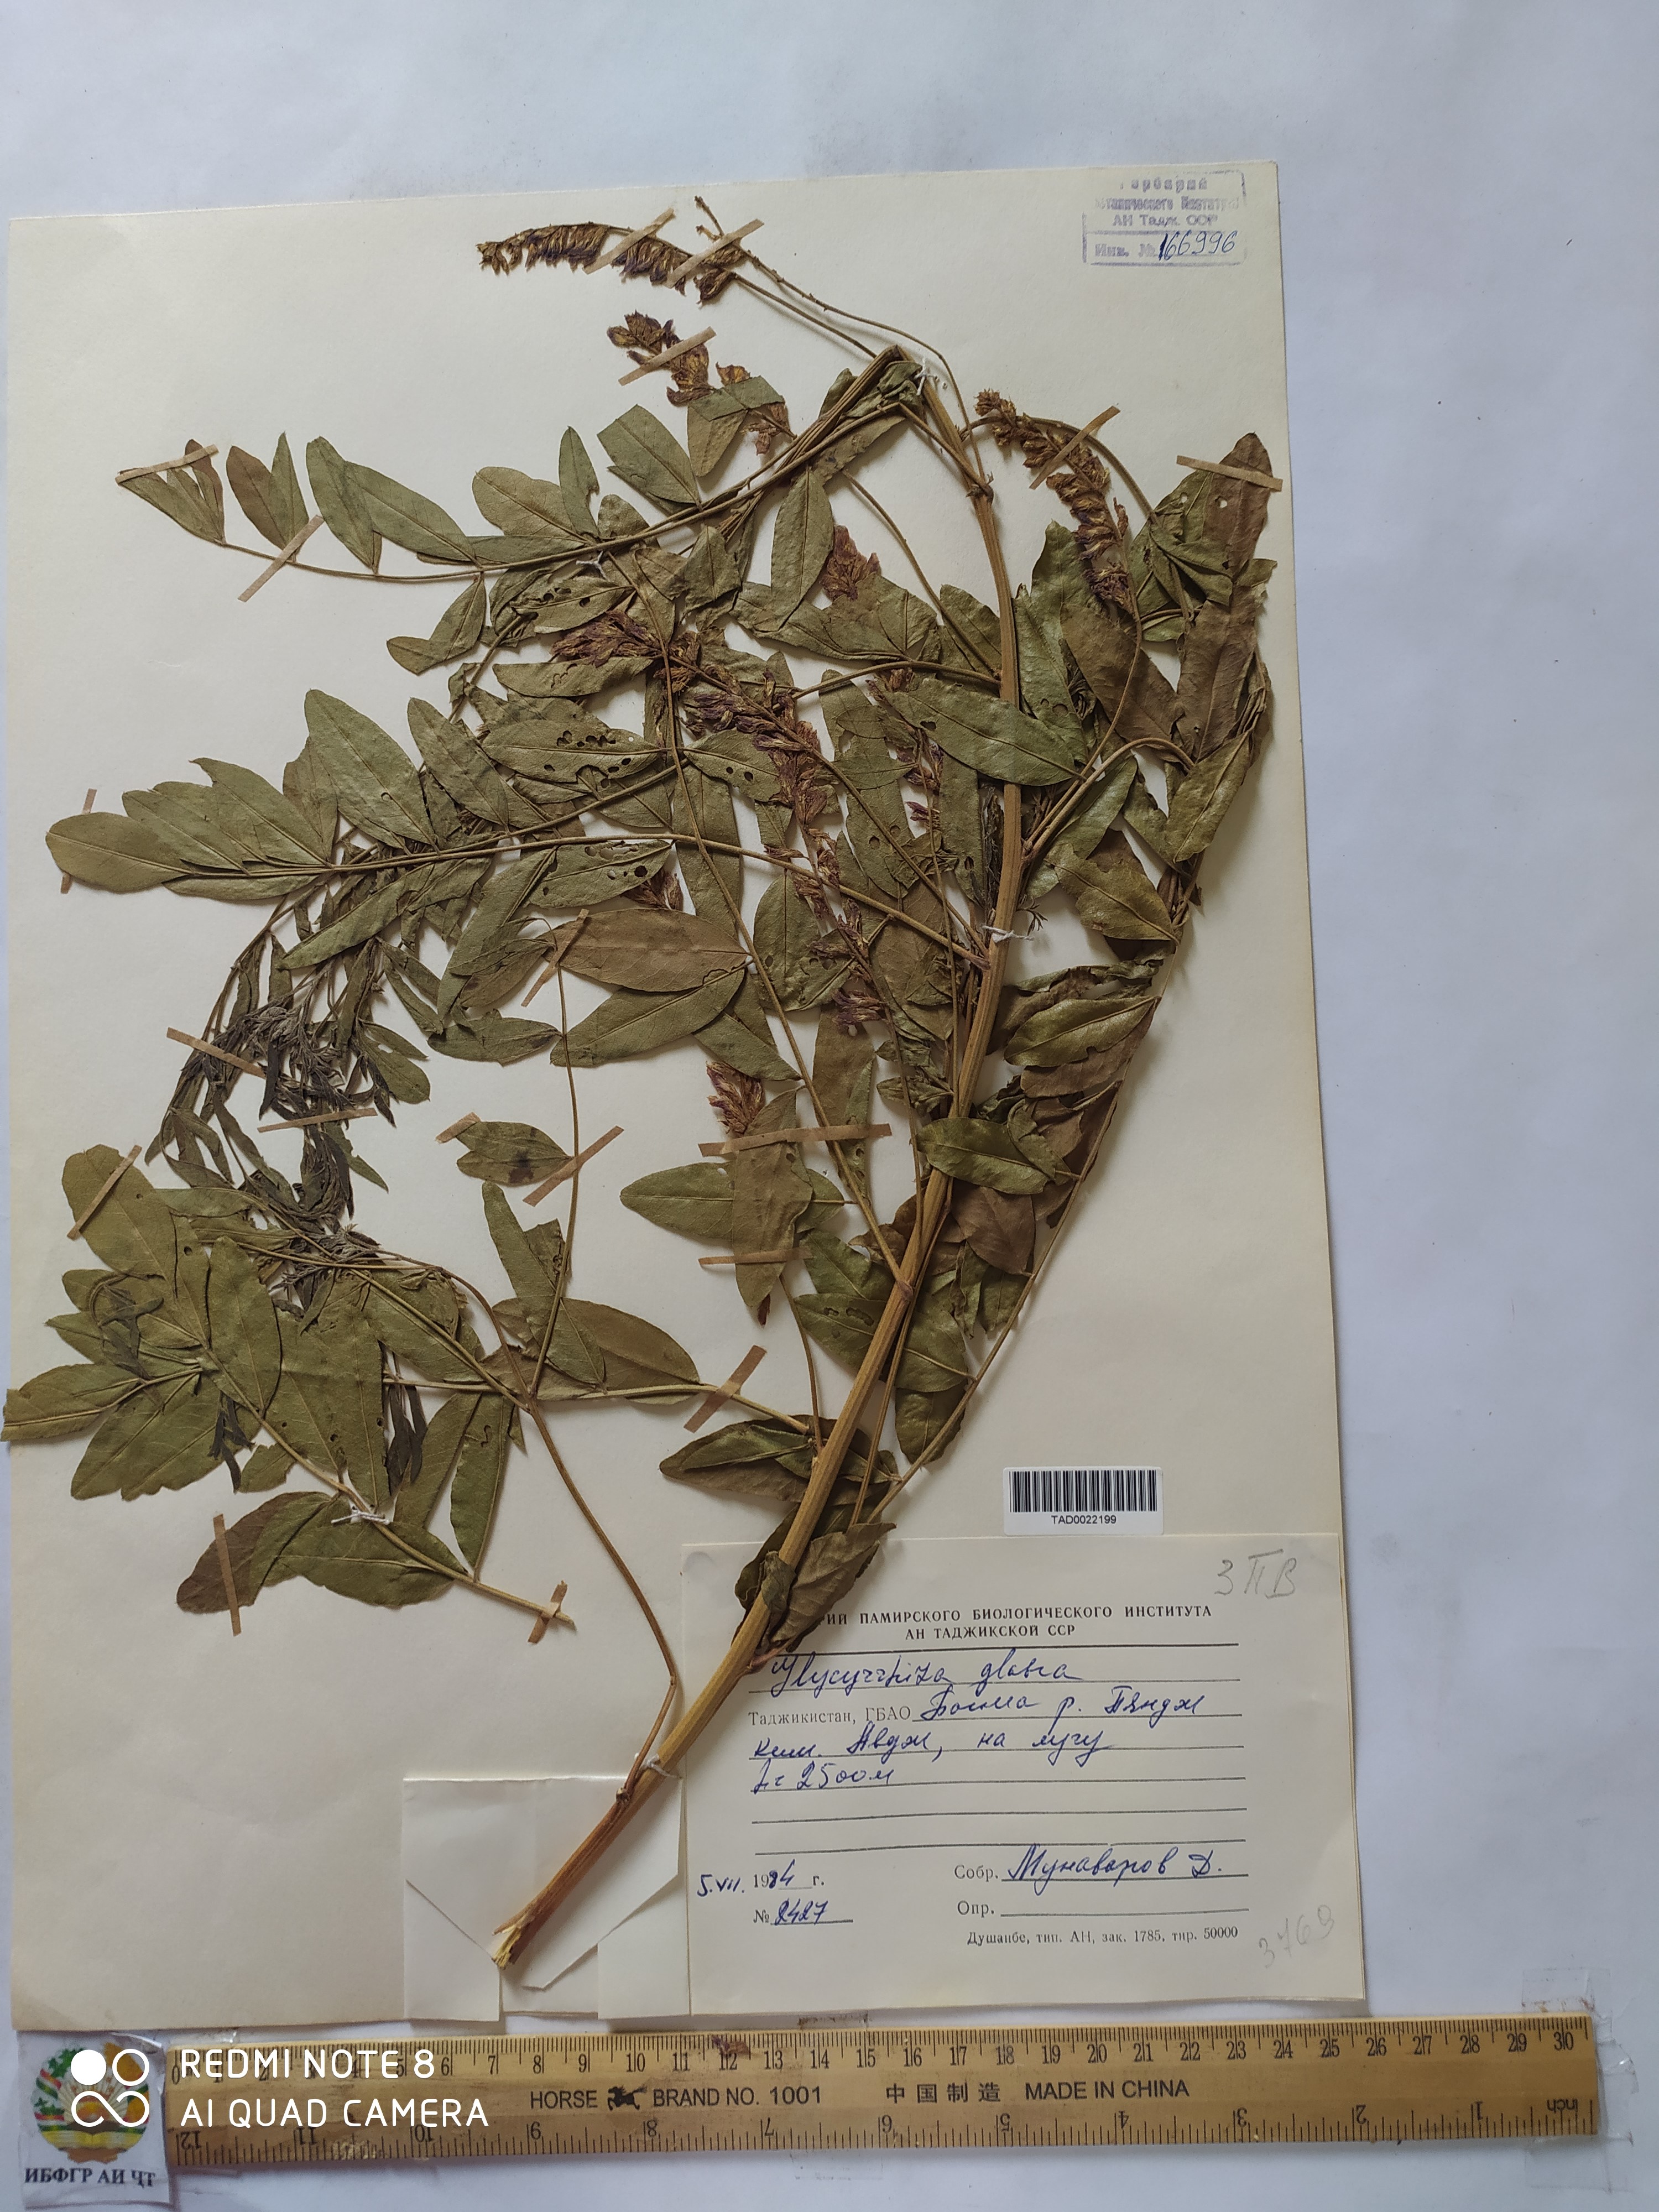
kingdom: Plantae
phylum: Tracheophyta
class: Magnoliopsida
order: Fabales
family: Fabaceae
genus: Glycyrrhiza
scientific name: Glycyrrhiza glabra
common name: Liquorice
